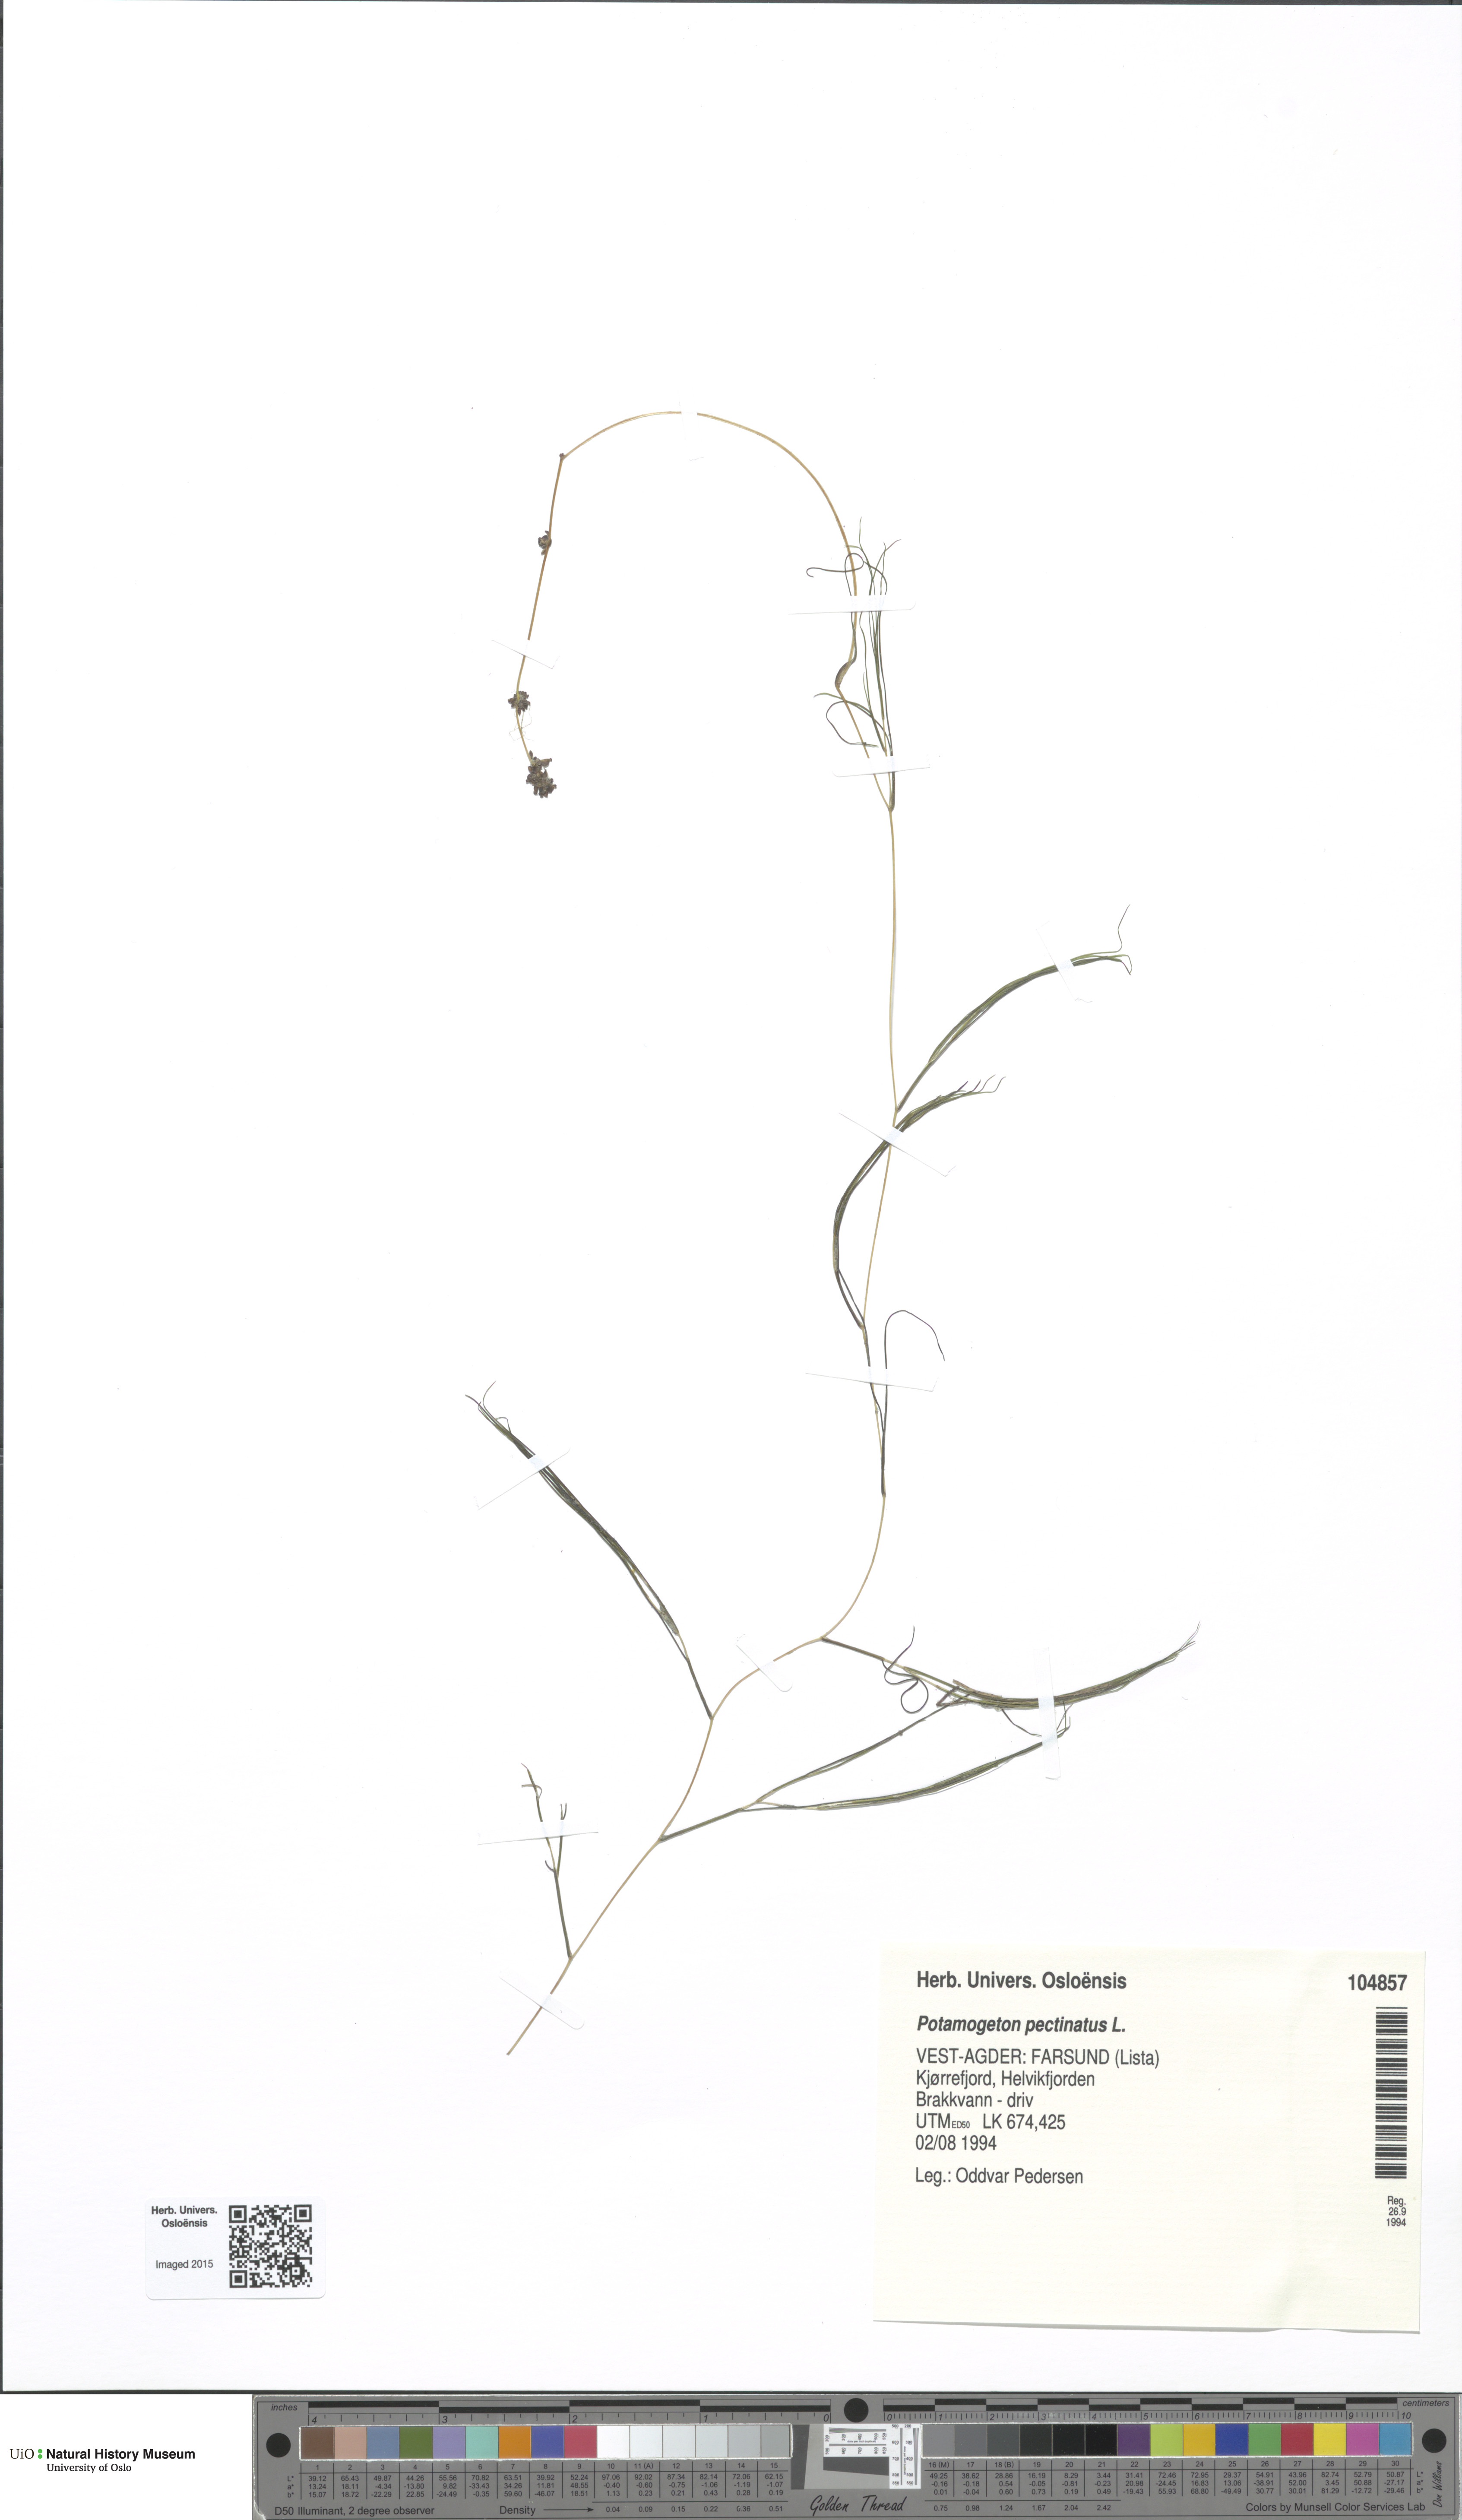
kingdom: Plantae
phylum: Tracheophyta
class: Liliopsida
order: Alismatales
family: Potamogetonaceae
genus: Stuckenia
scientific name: Stuckenia pectinata
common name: Sago pondweed
